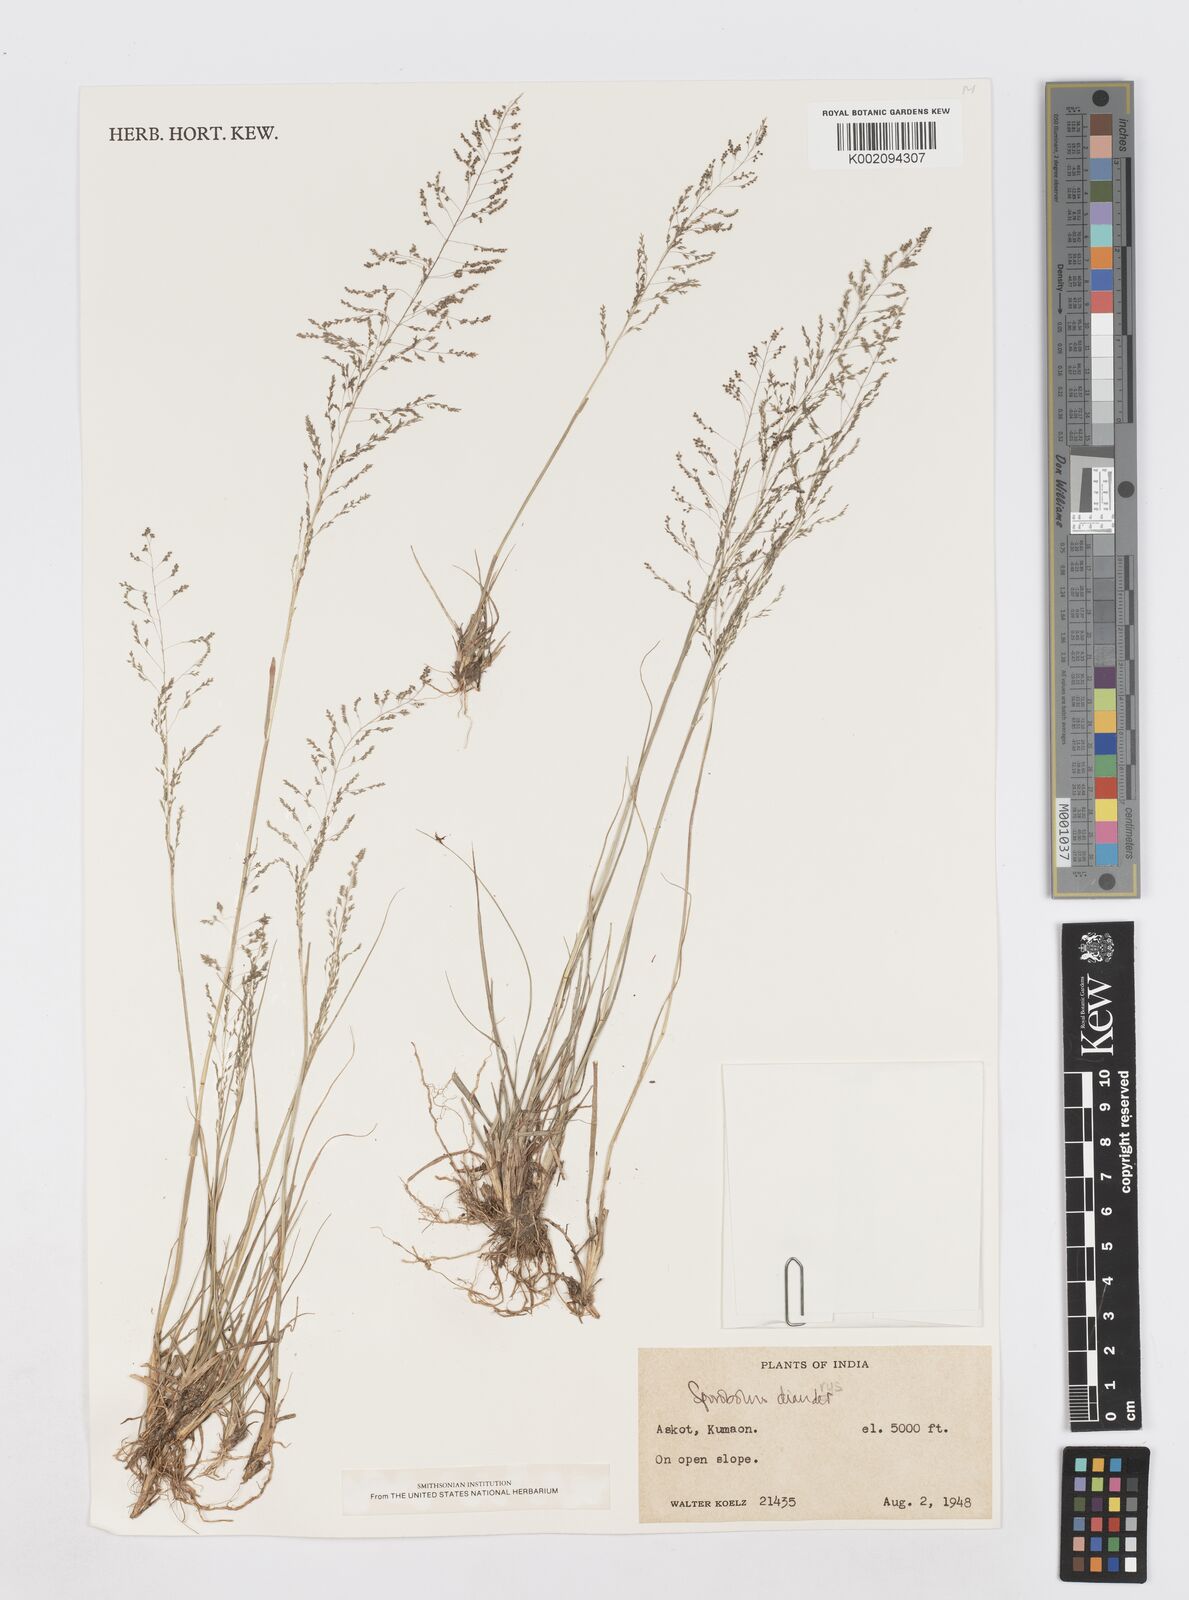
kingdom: Plantae
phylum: Tracheophyta
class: Liliopsida
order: Poales
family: Poaceae
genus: Sporobolus
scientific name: Sporobolus diandrus
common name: Tussock dropseed
